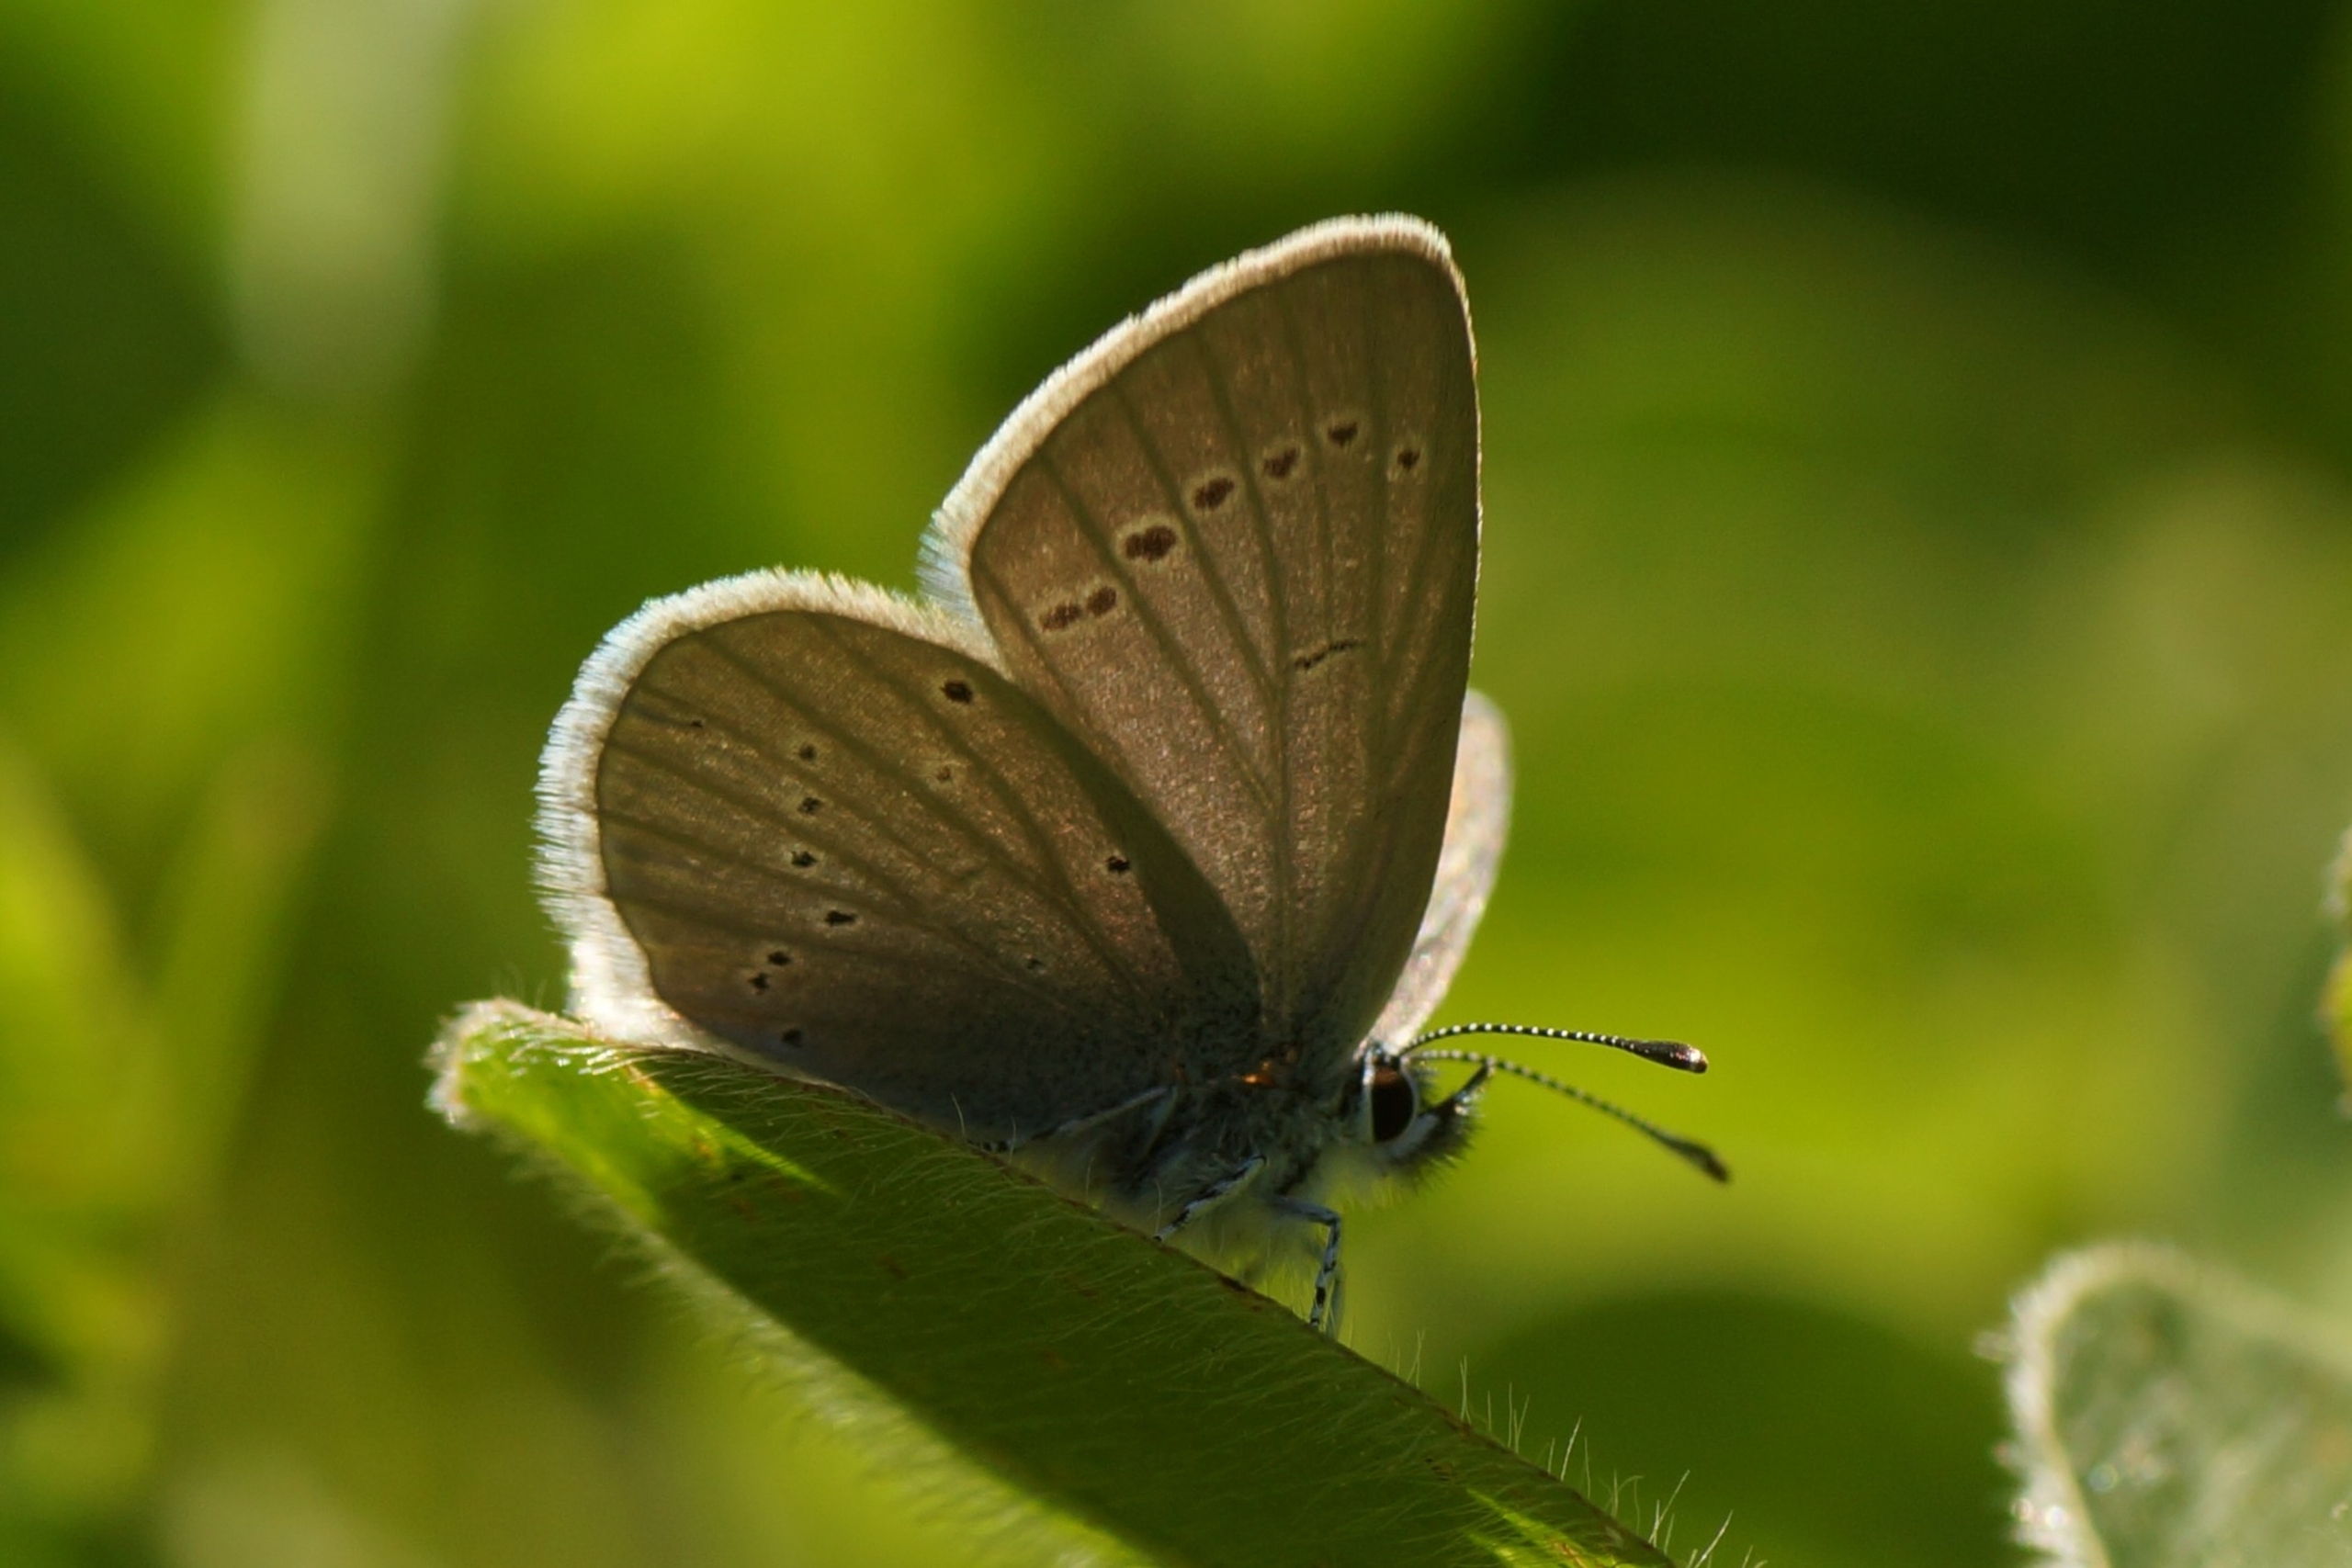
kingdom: Animalia
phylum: Arthropoda
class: Insecta
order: Lepidoptera
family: Lycaenidae
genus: Cupido
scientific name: Cupido minimus
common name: Dværgblåfugl
